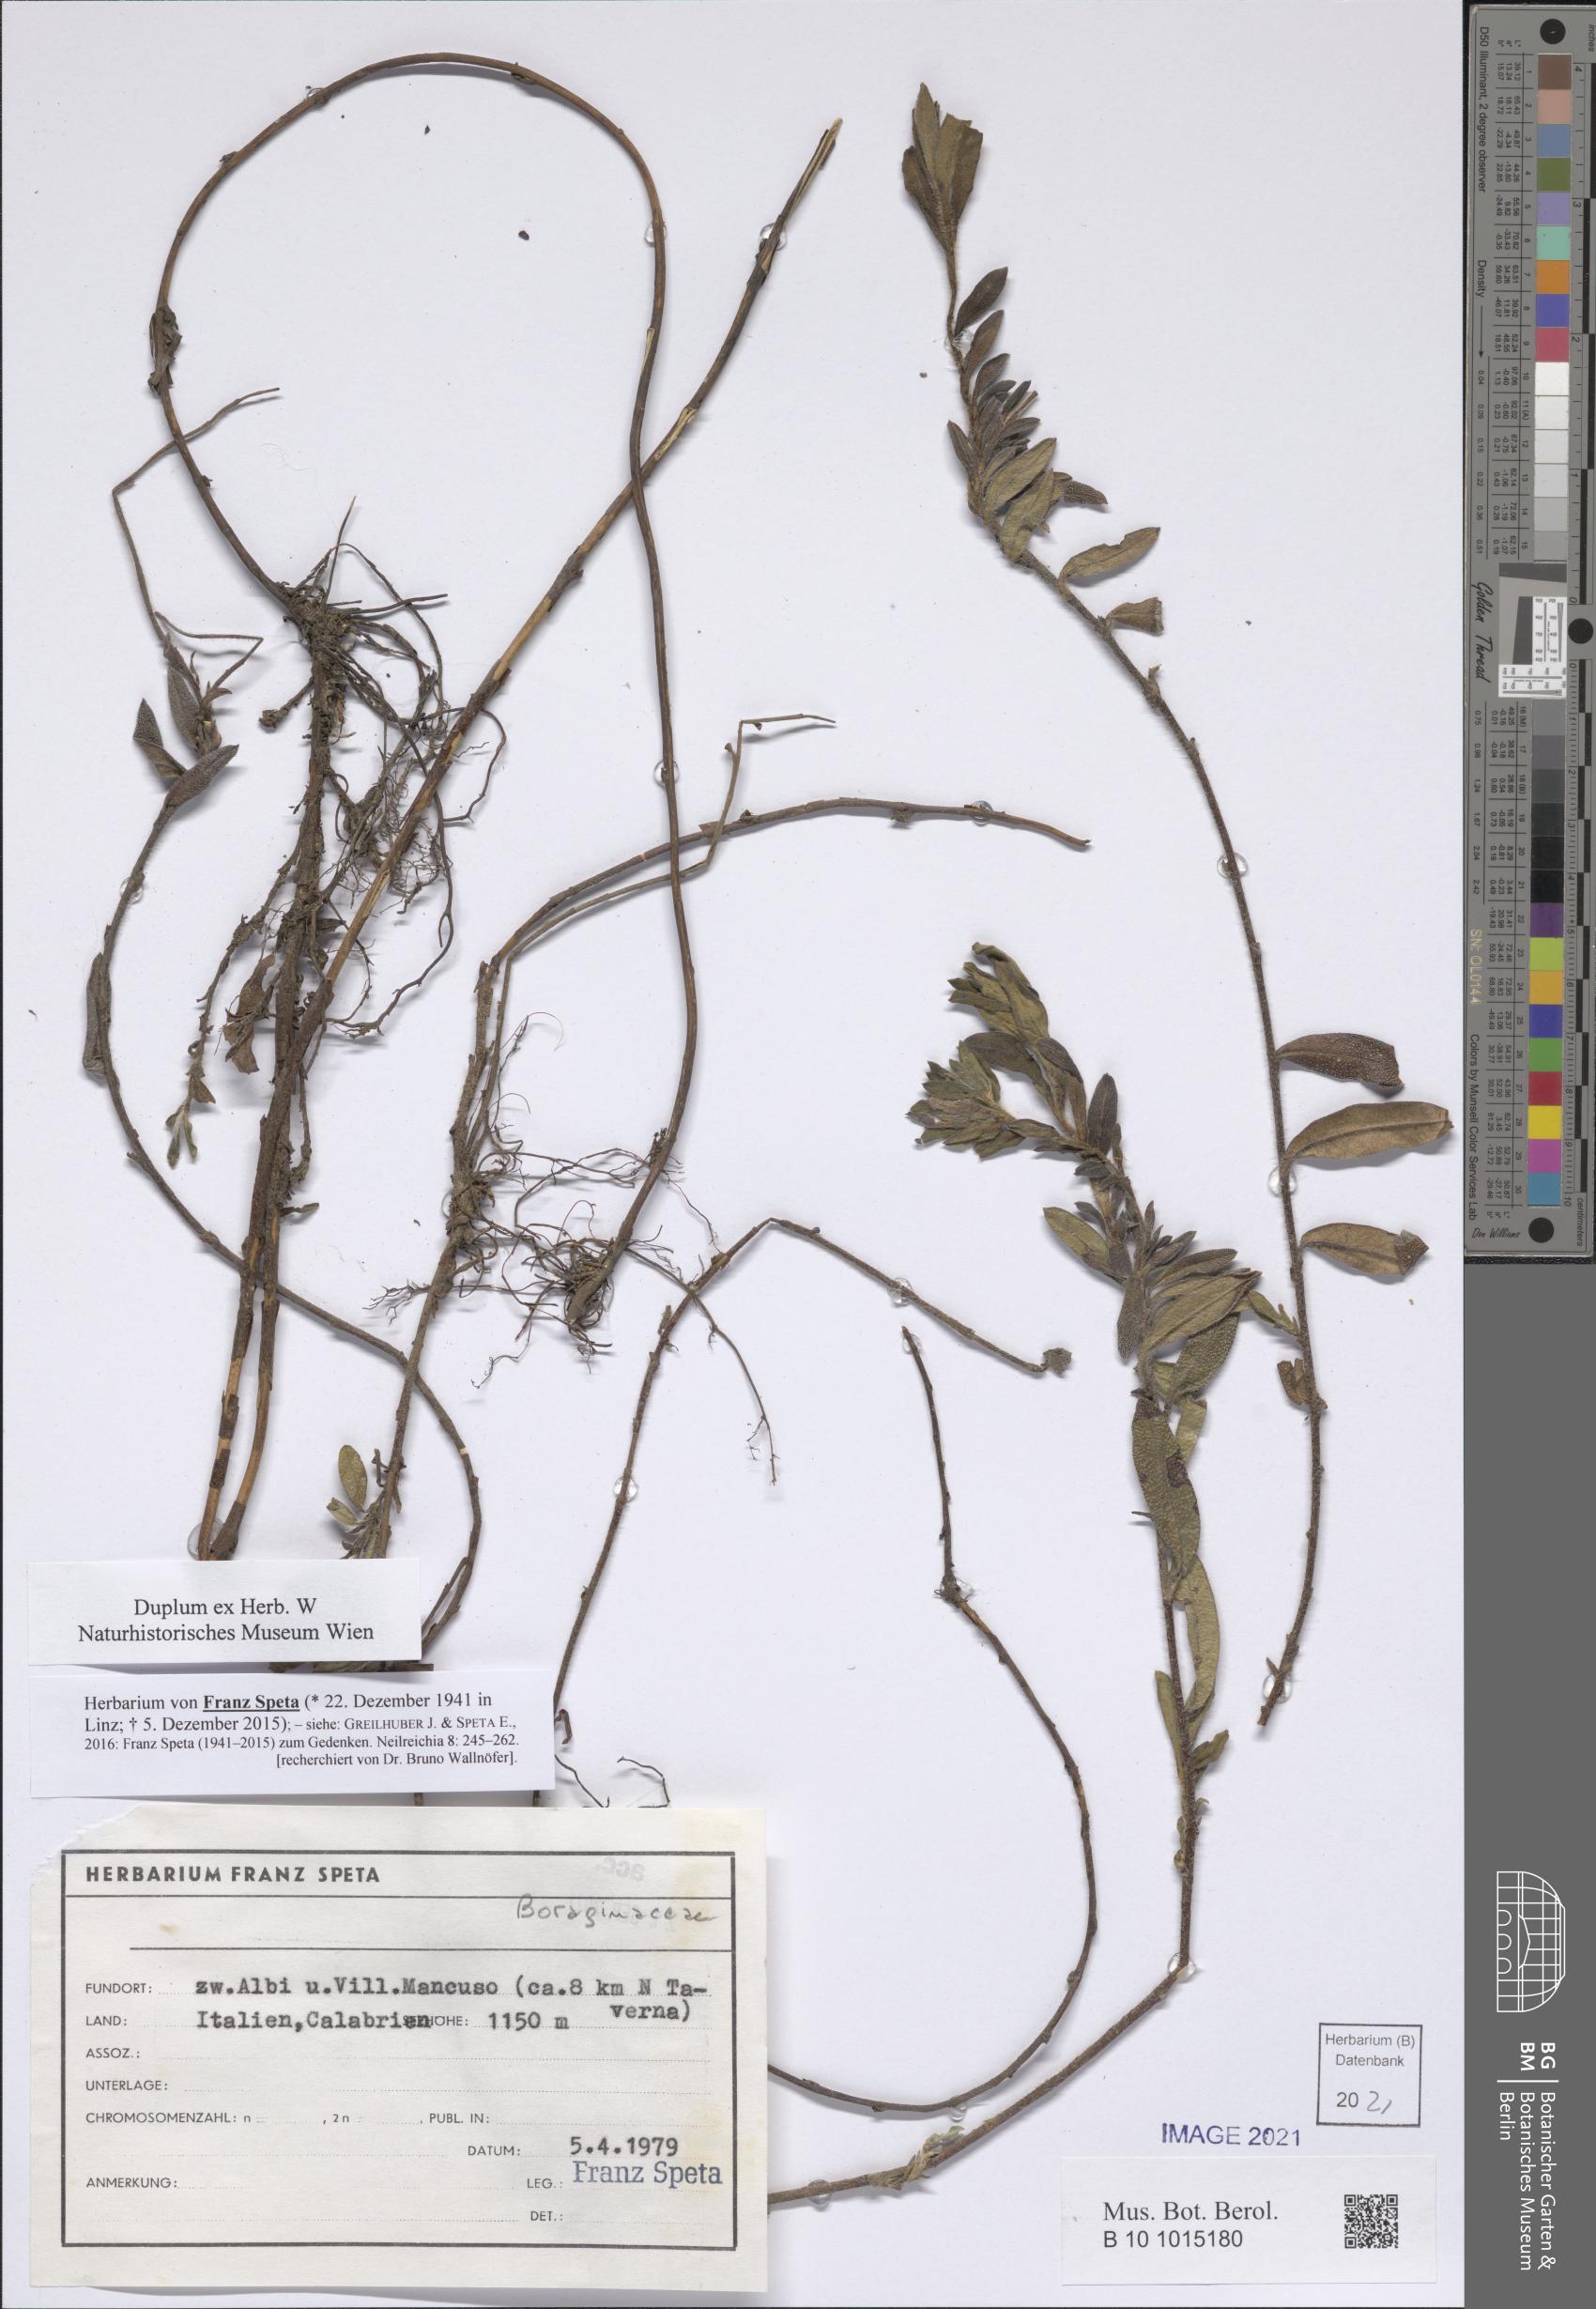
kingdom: Plantae
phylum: Tracheophyta
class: Magnoliopsida
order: Boraginales
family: Boraginaceae
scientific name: Boraginaceae
